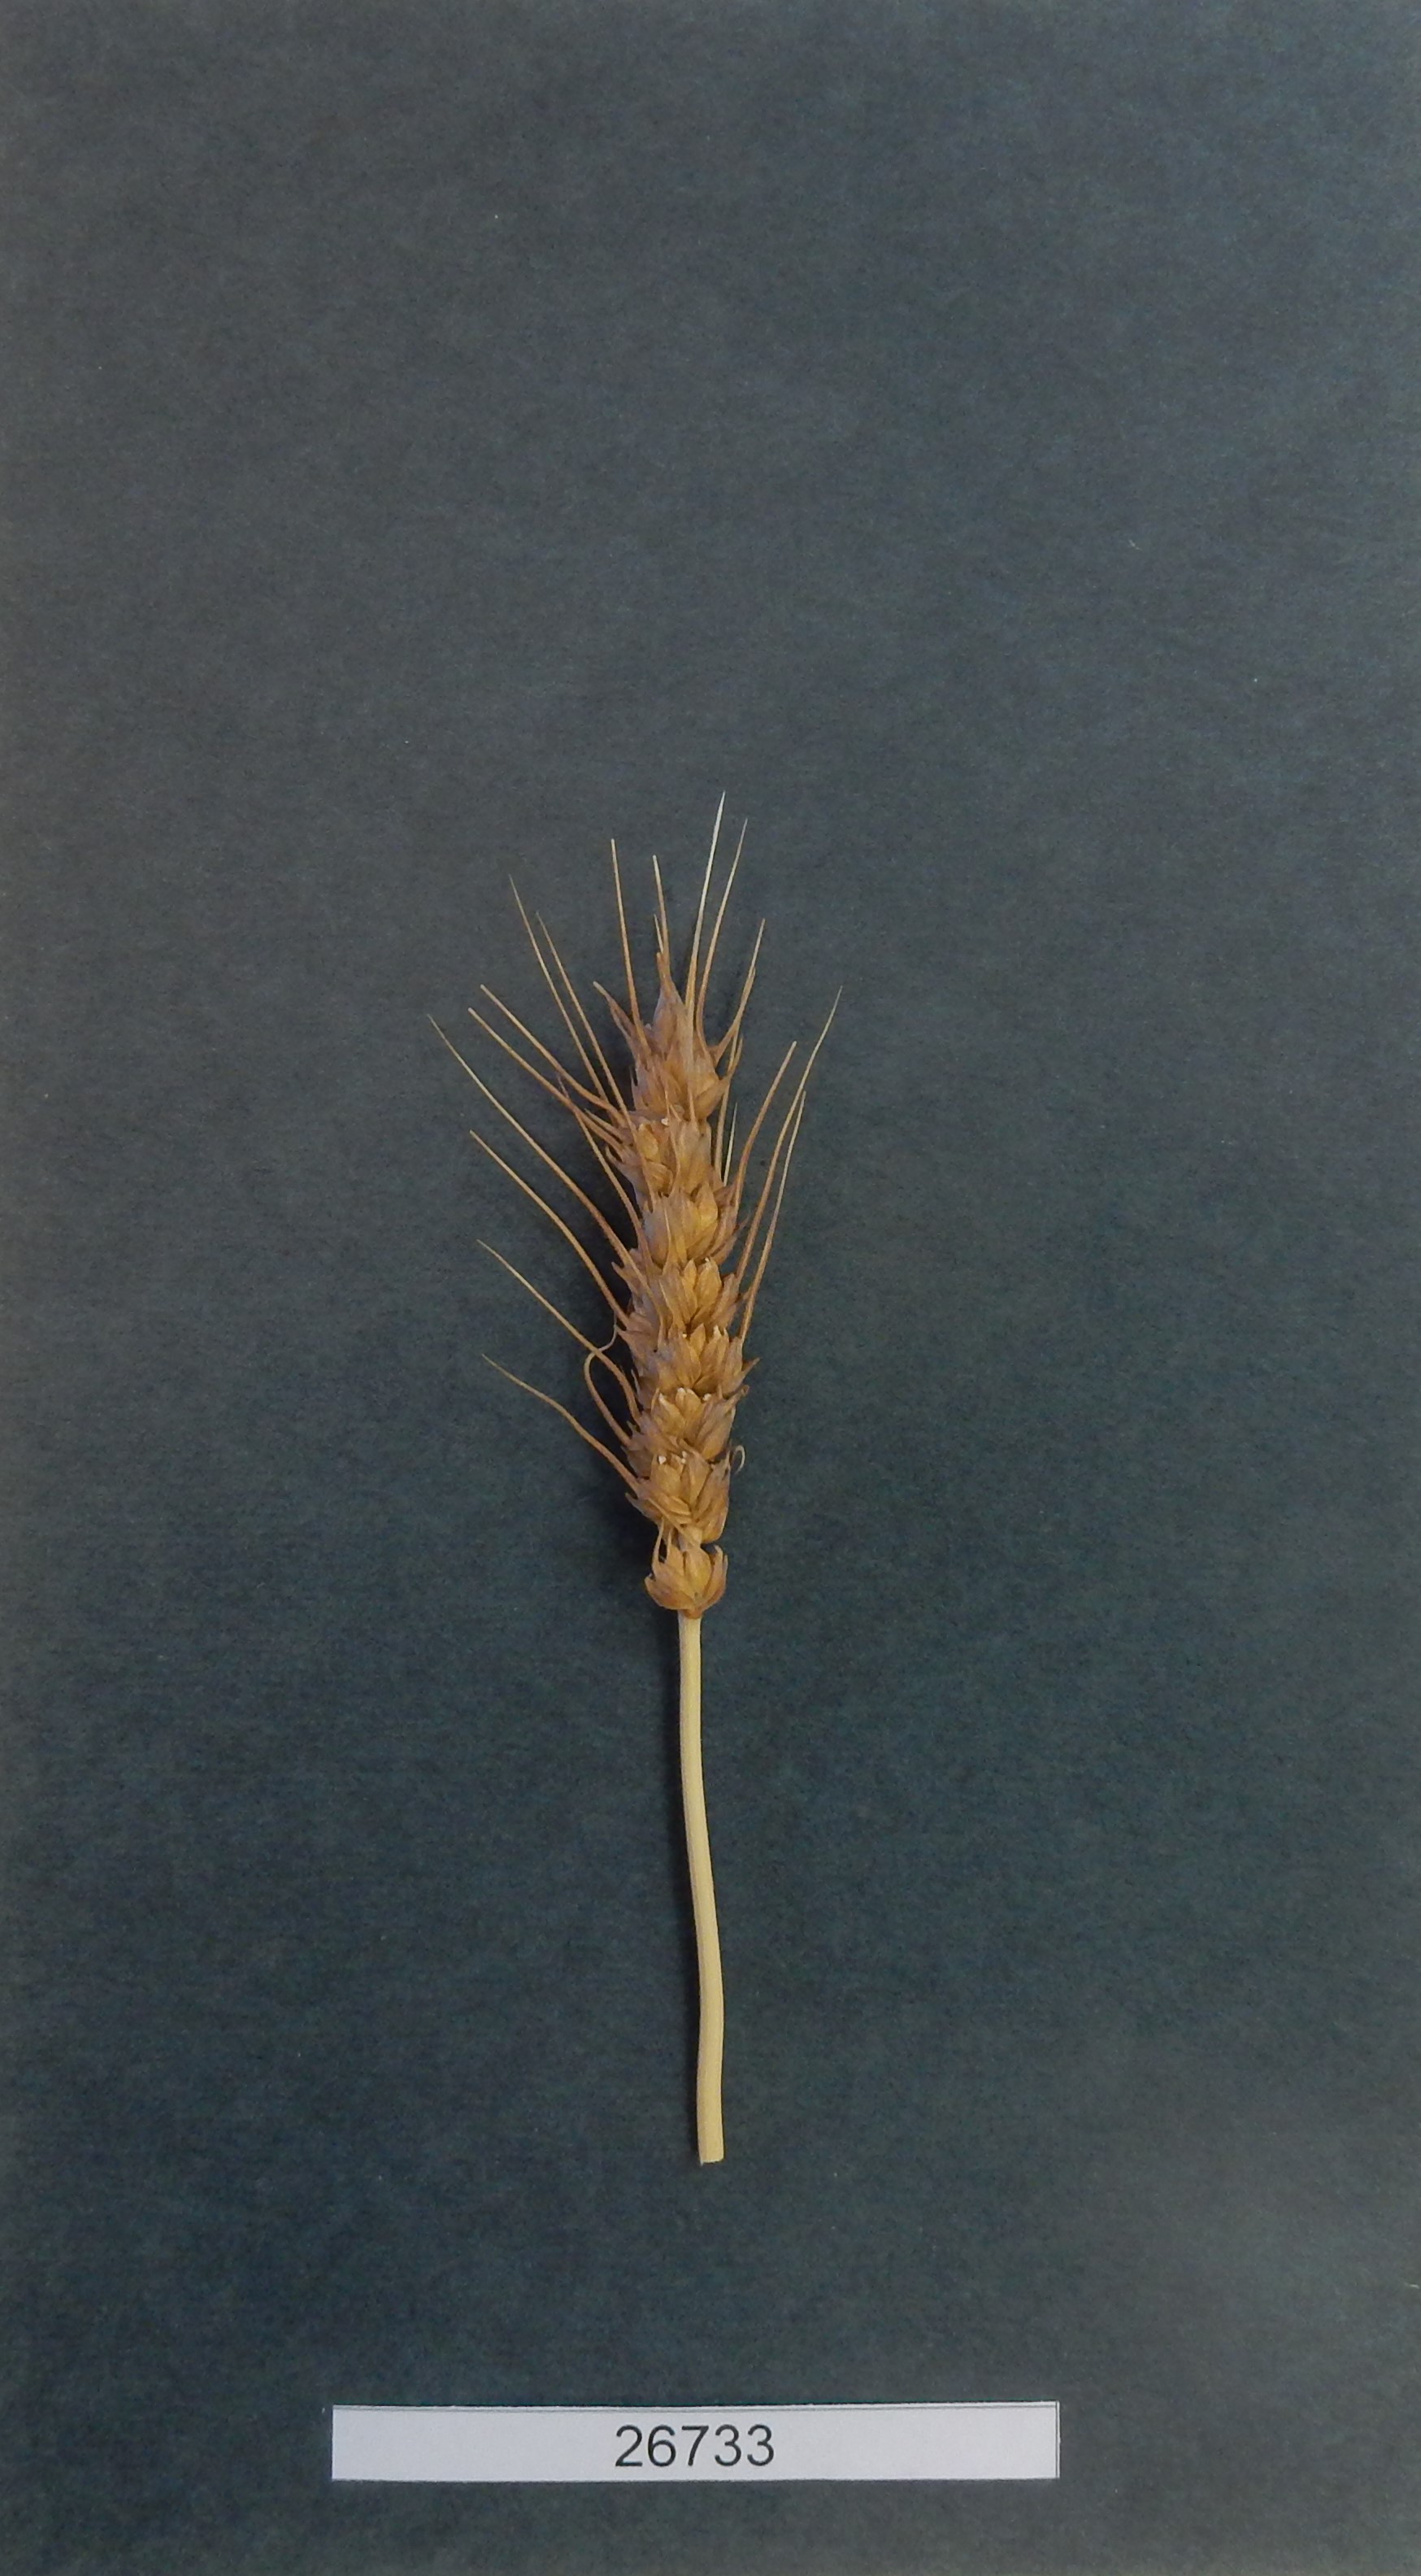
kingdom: Plantae
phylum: Tracheophyta
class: Liliopsida
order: Poales
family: Poaceae
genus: Triticum
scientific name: Triticum aestivum
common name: Wheat
